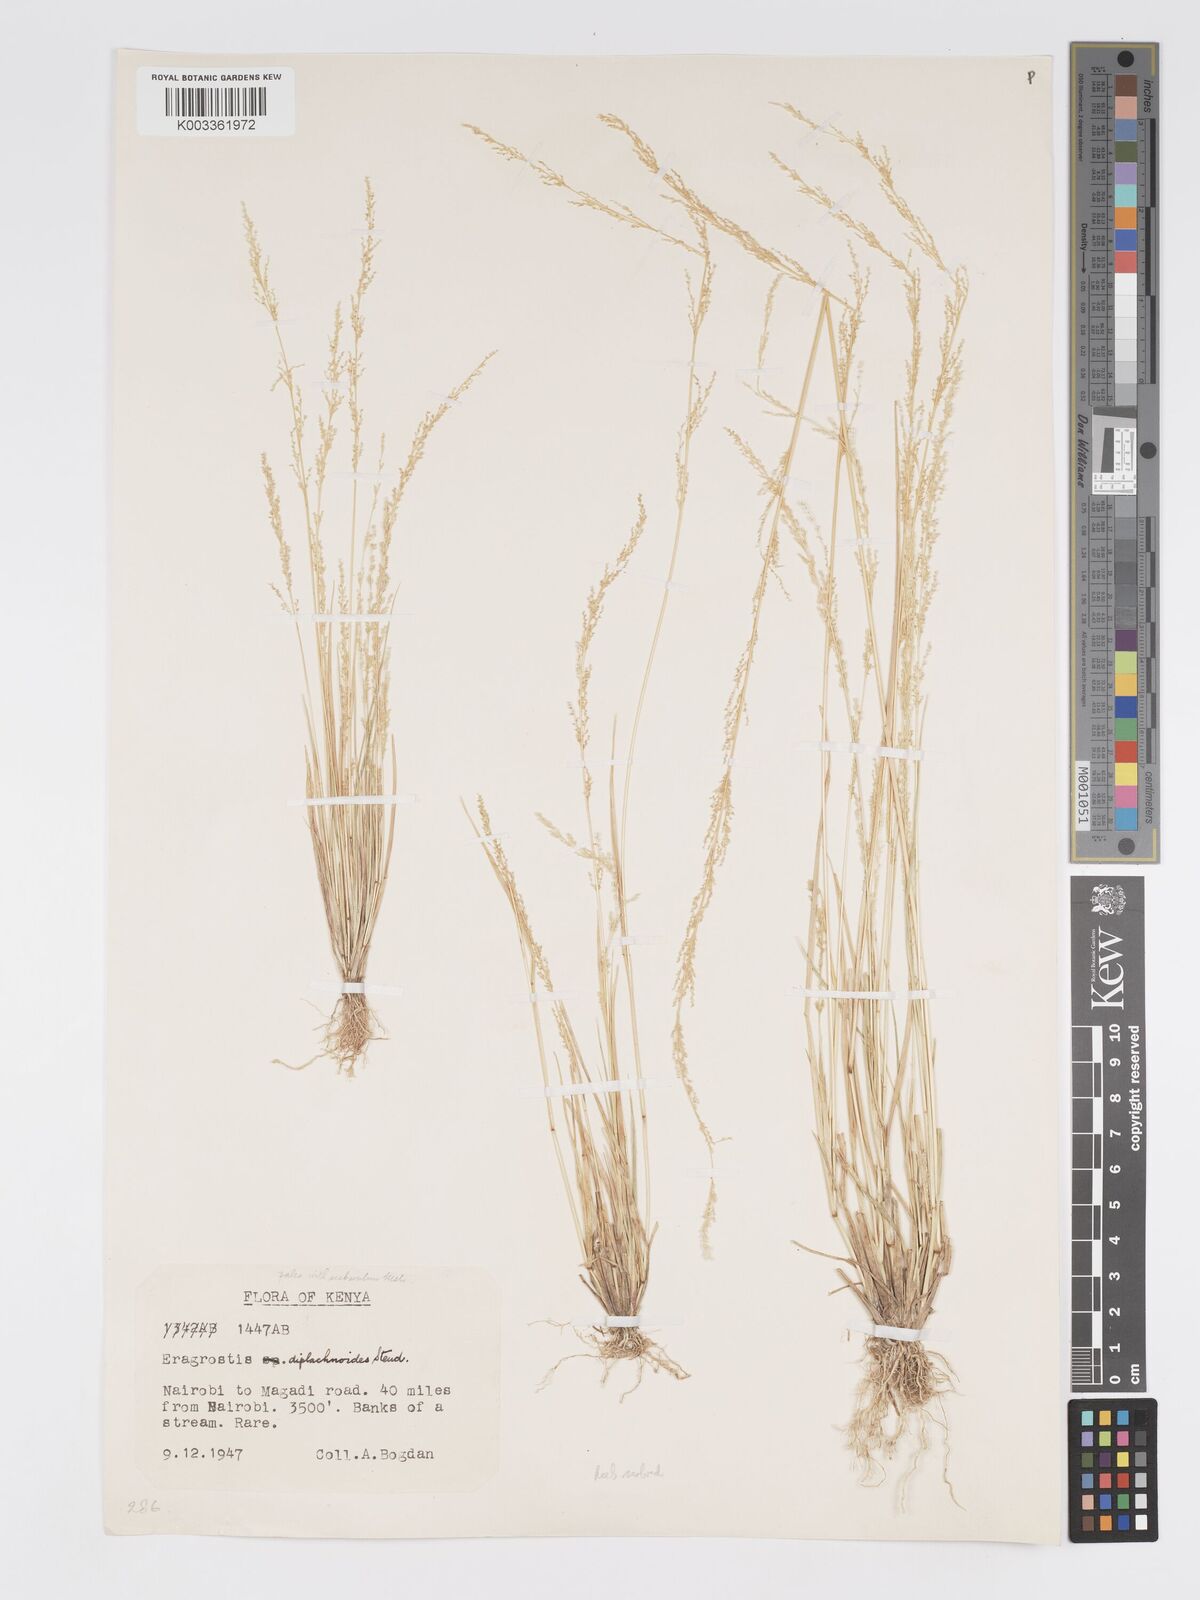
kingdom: Plantae
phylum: Tracheophyta
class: Liliopsida
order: Poales
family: Poaceae
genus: Eragrostis
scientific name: Eragrostis japonica
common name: Pond lovegrass
